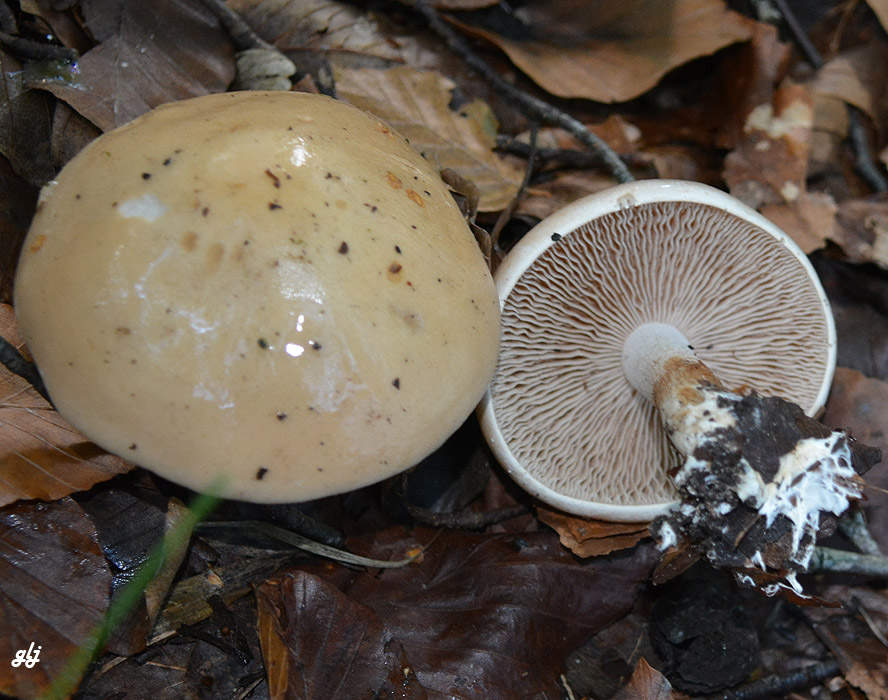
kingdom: Fungi
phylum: Basidiomycota
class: Agaricomycetes
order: Agaricales
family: Hymenogastraceae
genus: Hebeloma
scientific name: Hebeloma
